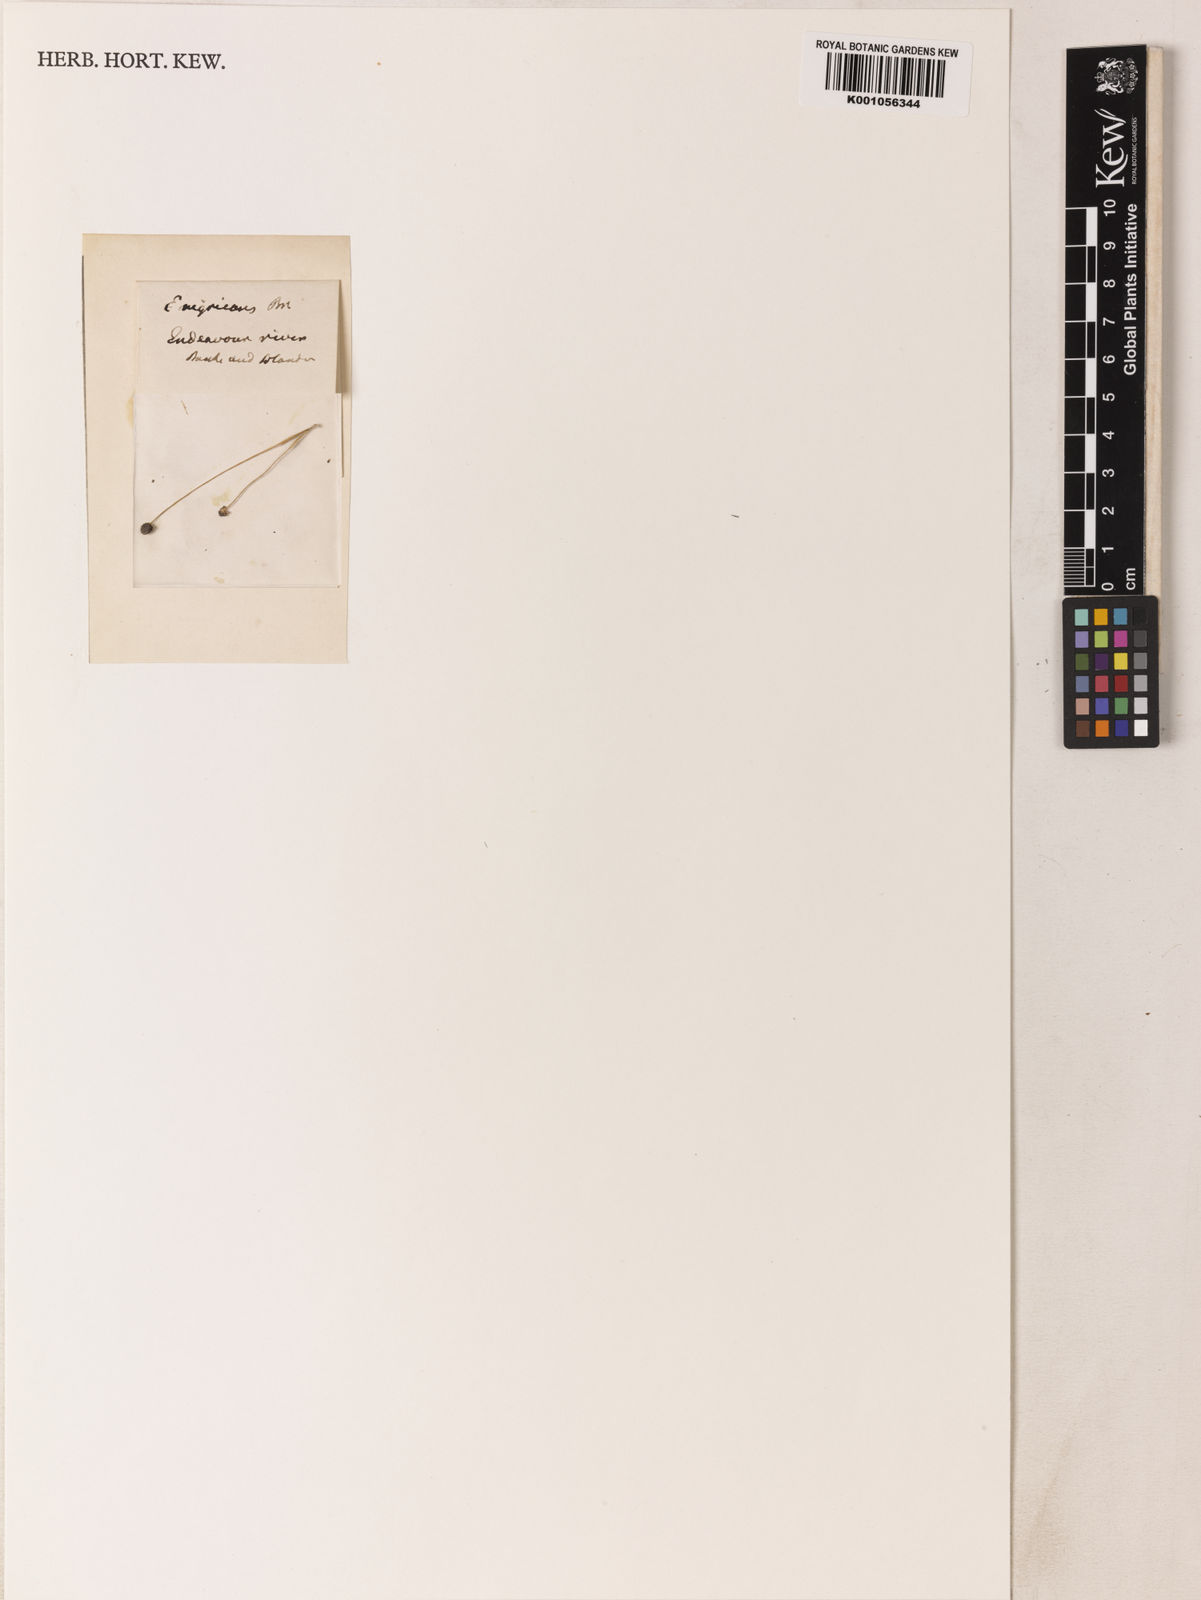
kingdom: Plantae
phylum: Tracheophyta
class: Liliopsida
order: Poales
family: Eriocaulaceae
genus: Eriocaulon
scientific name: Eriocaulon pygmaeum
